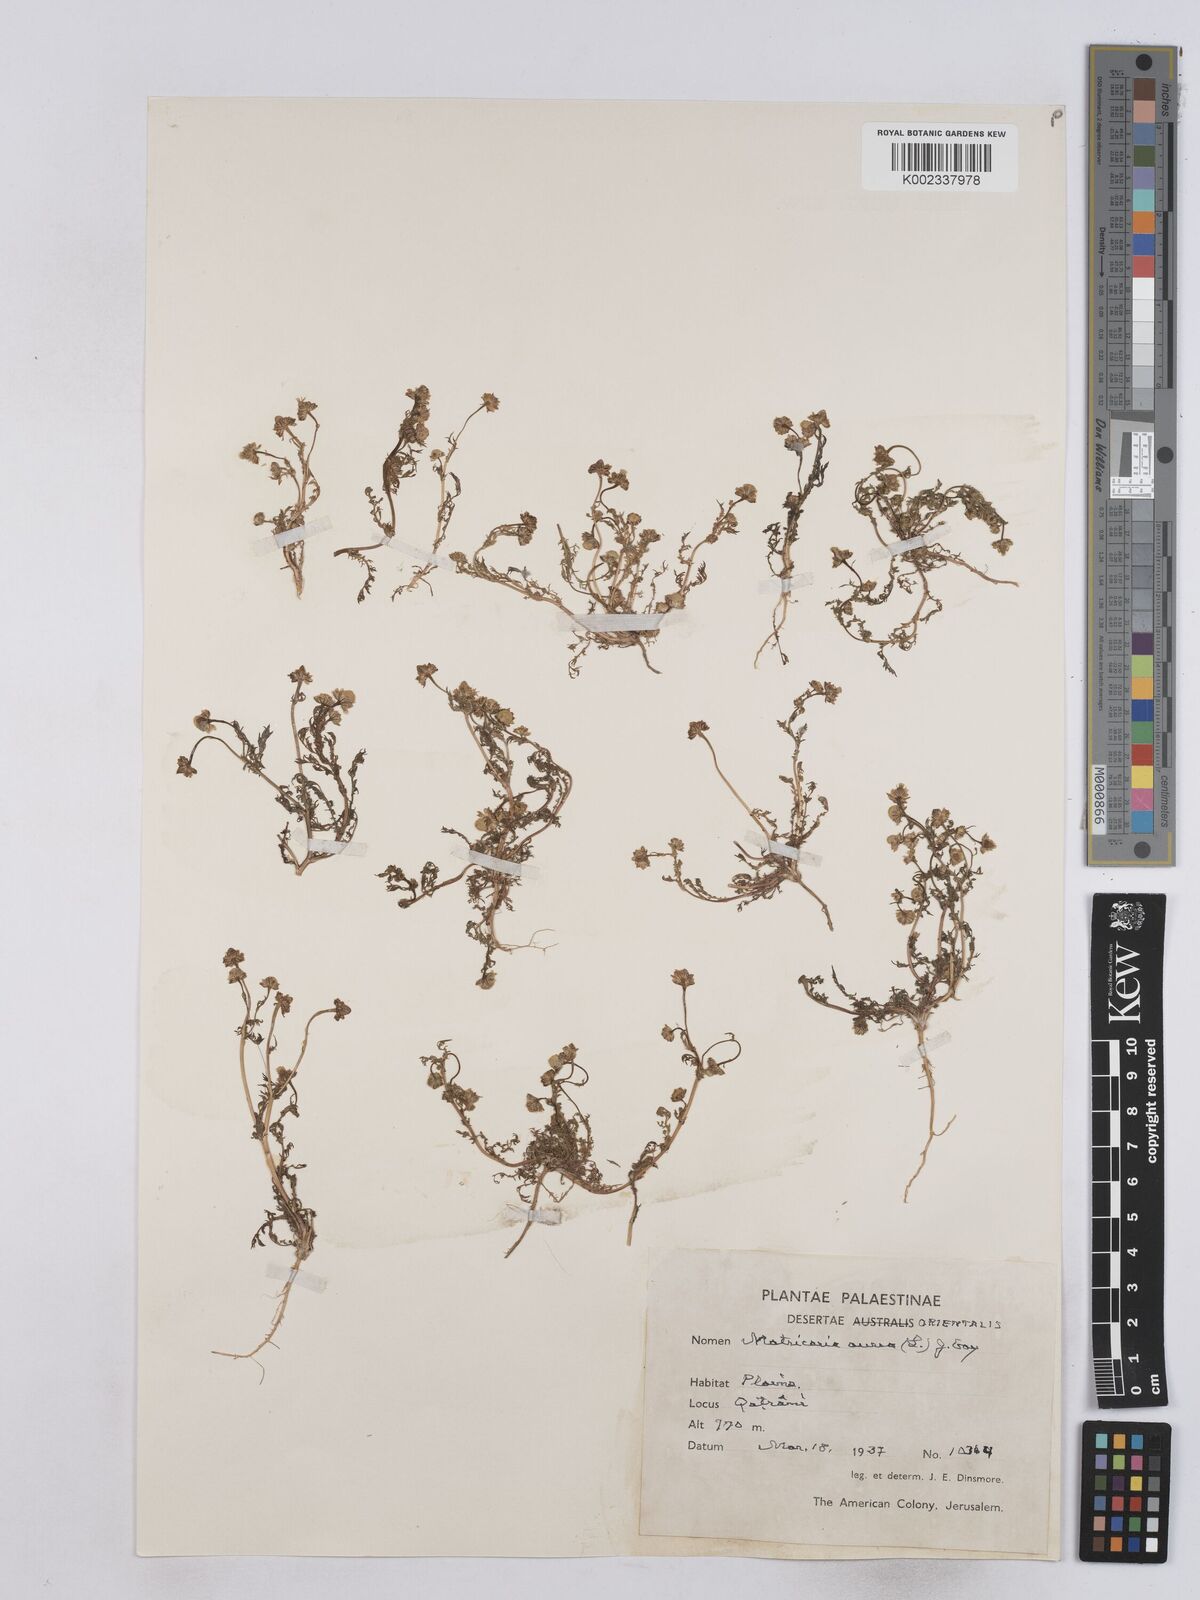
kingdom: Plantae
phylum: Tracheophyta
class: Magnoliopsida
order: Asterales
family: Asteraceae
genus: Matricaria
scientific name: Matricaria aurea
